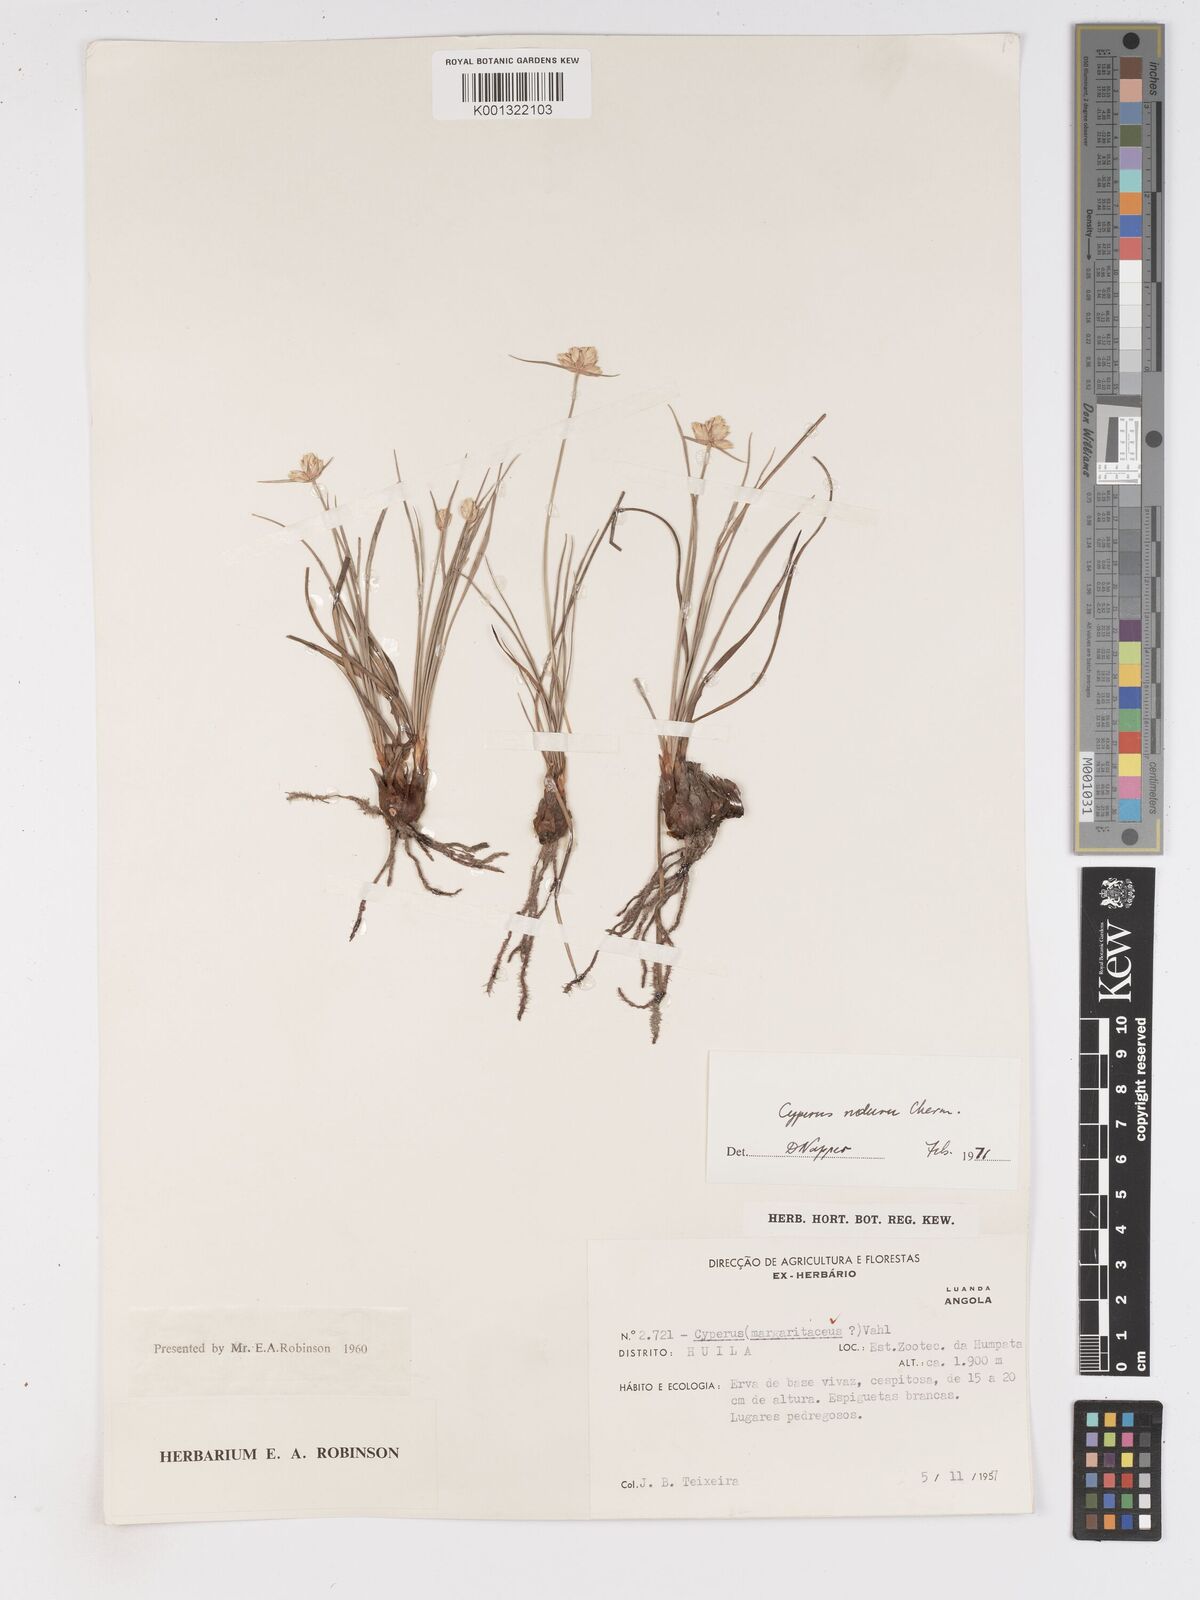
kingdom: Plantae
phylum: Tracheophyta
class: Liliopsida
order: Poales
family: Cyperaceae
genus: Cyperus
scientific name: Cyperus nduru
